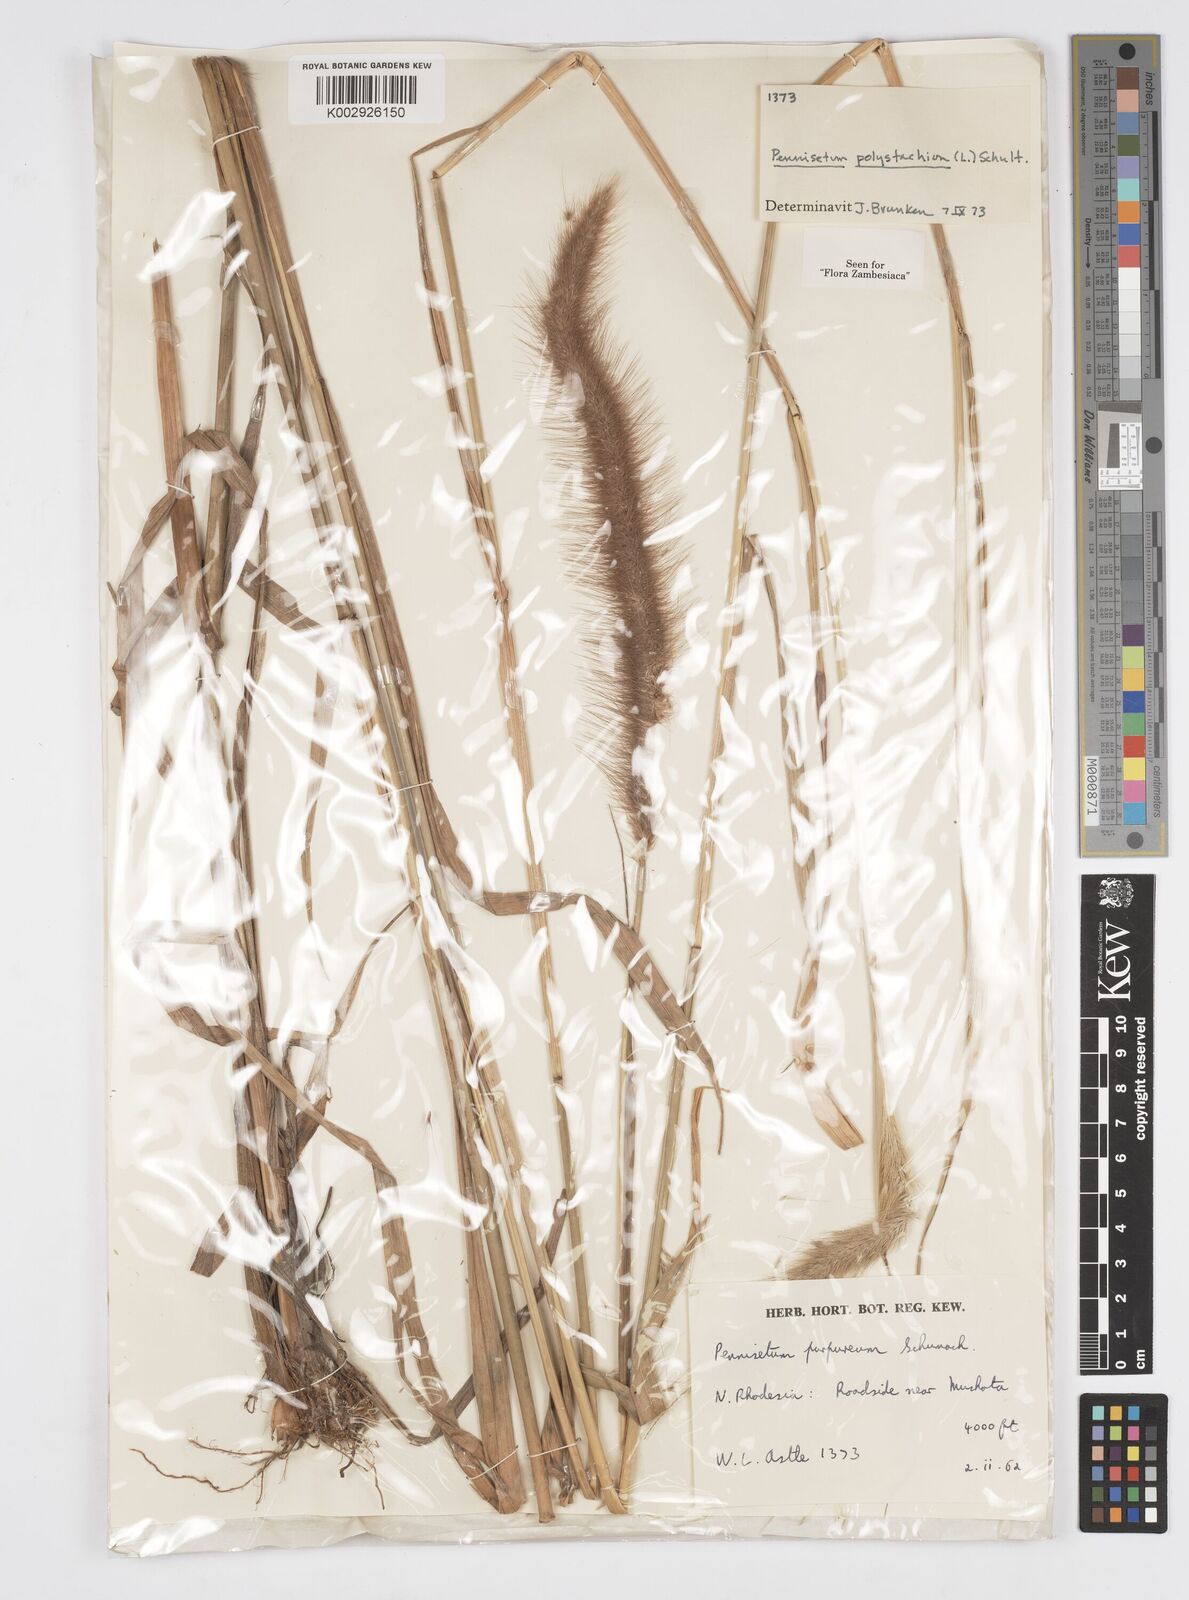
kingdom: Plantae
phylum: Tracheophyta
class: Liliopsida
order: Poales
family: Poaceae
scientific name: Poaceae
